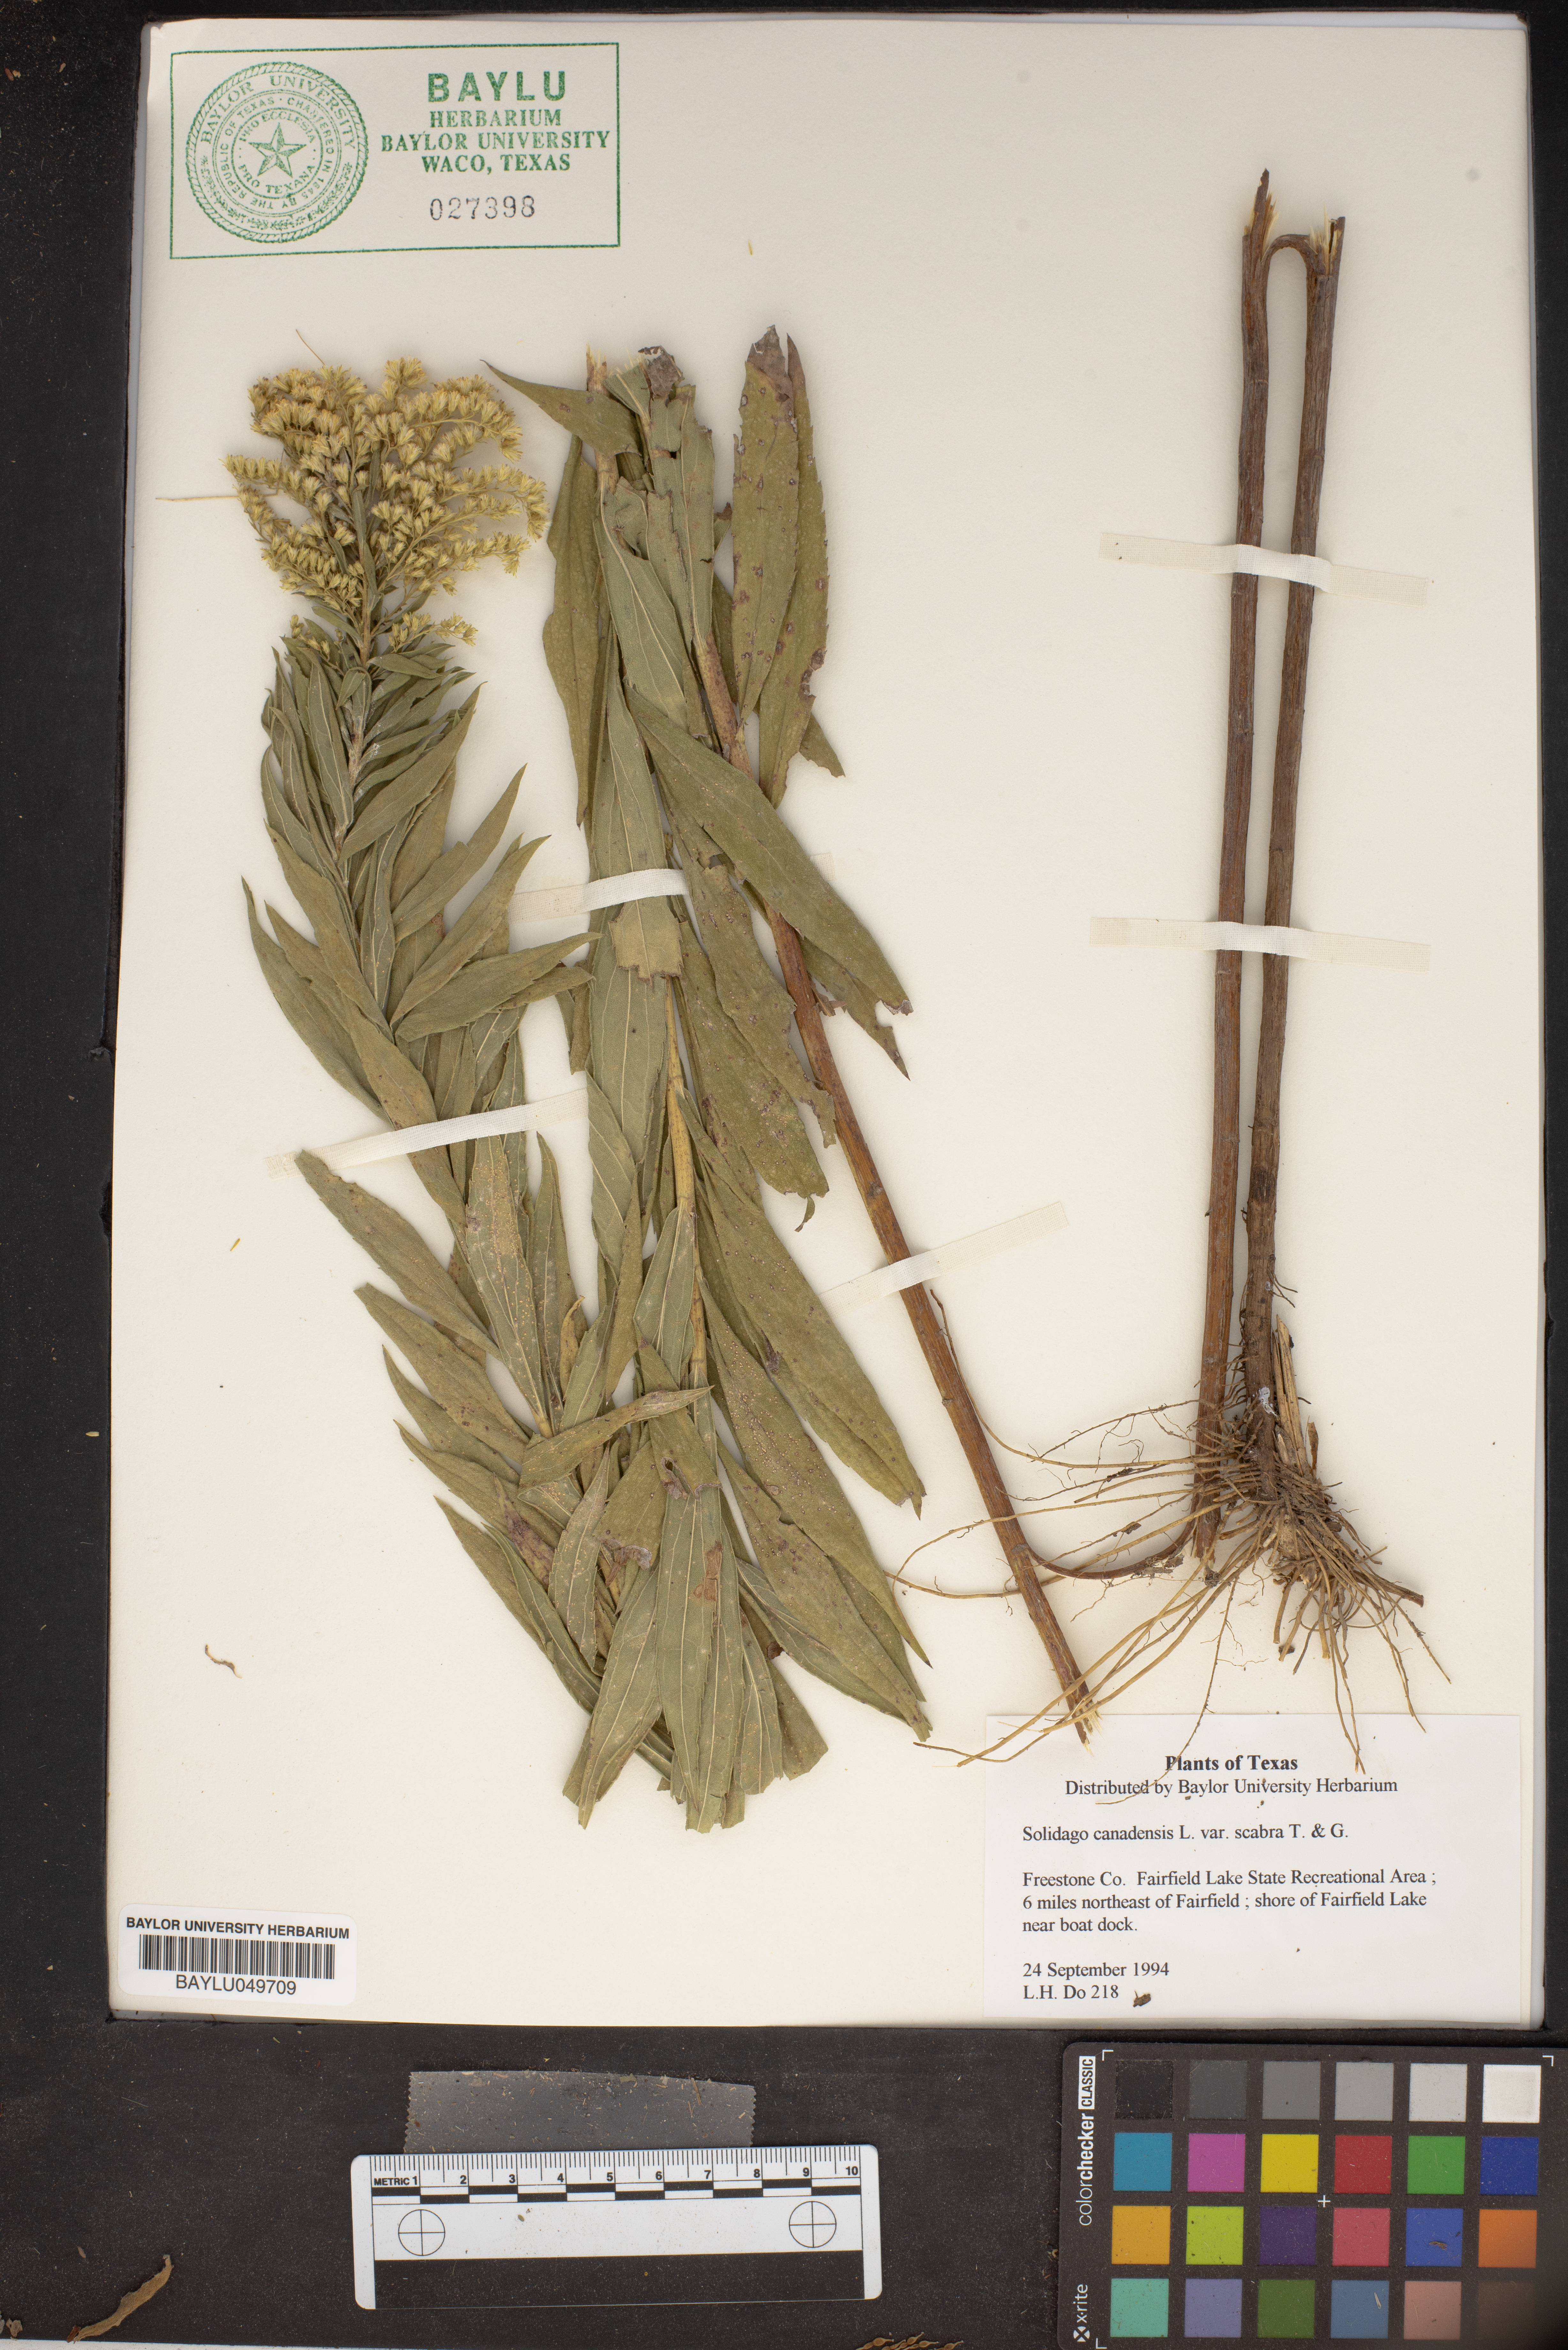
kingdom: Plantae
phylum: Tracheophyta
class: Magnoliopsida
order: Asterales
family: Asteraceae
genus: Solidago
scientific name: Solidago canadensis
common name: Canada goldenrod
